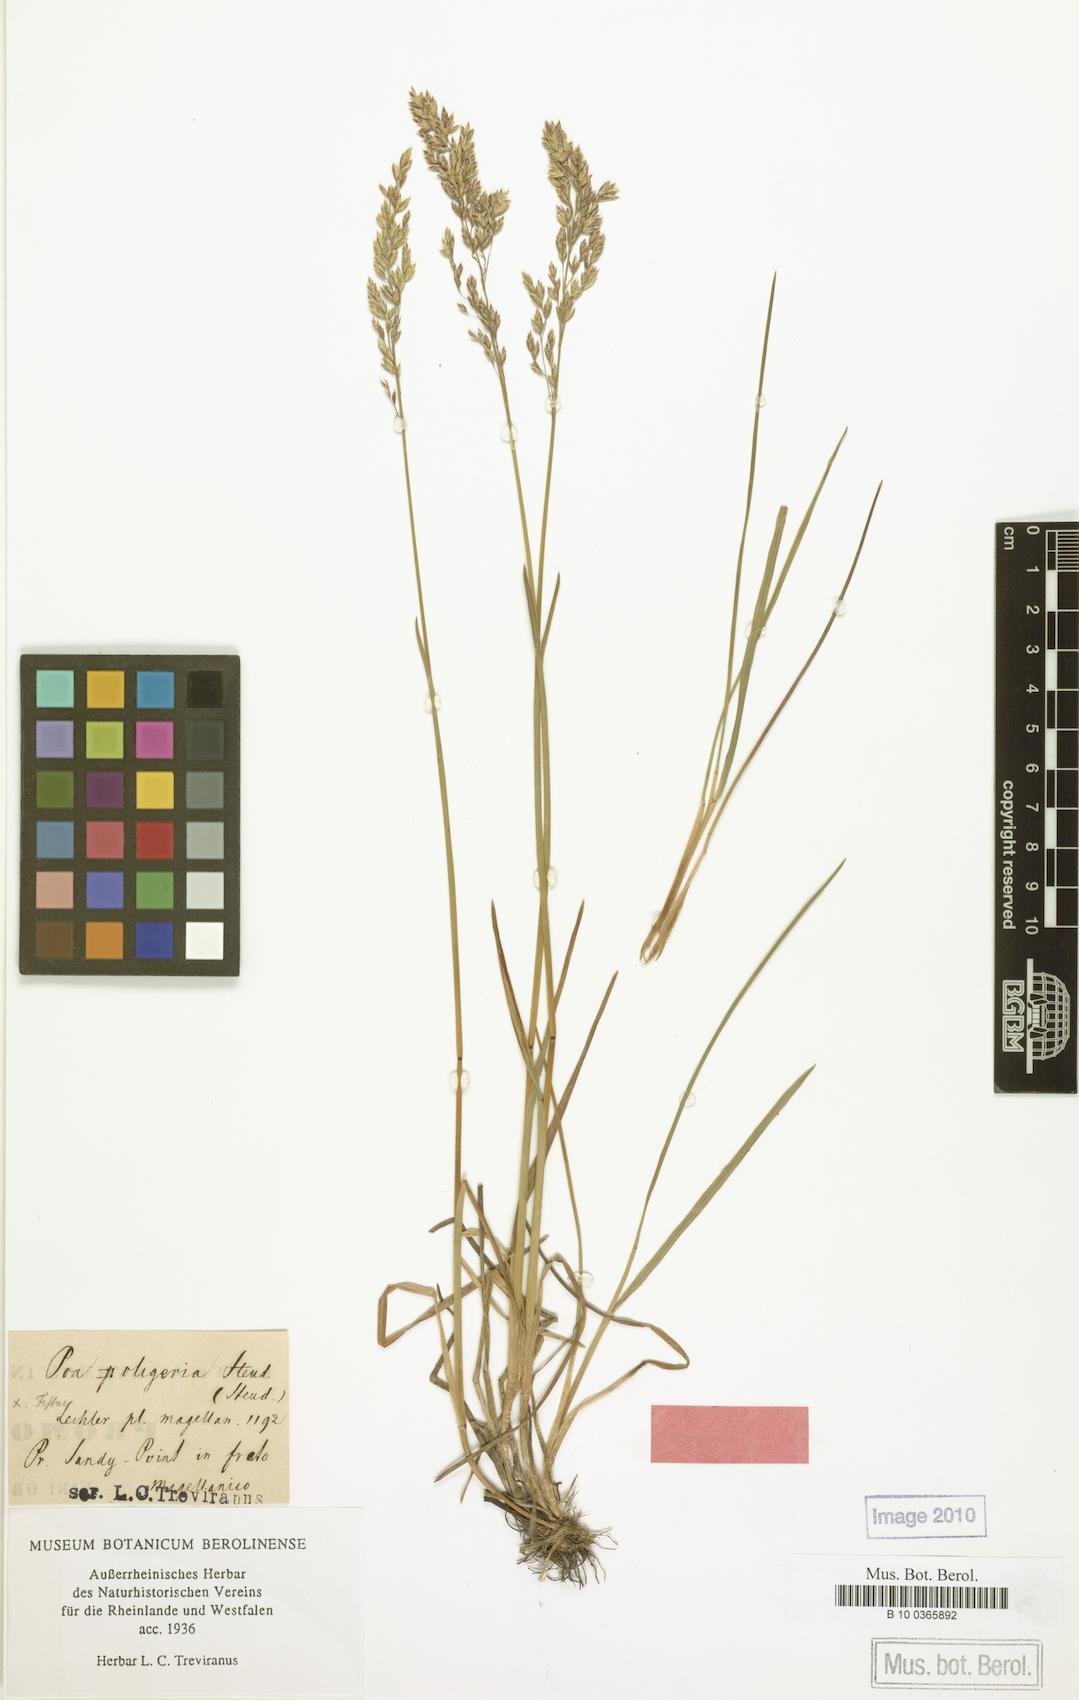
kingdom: Plantae
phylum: Tracheophyta
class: Liliopsida
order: Poales
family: Poaceae
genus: Poa
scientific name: Poa pratensis
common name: Kentucky bluegrass
